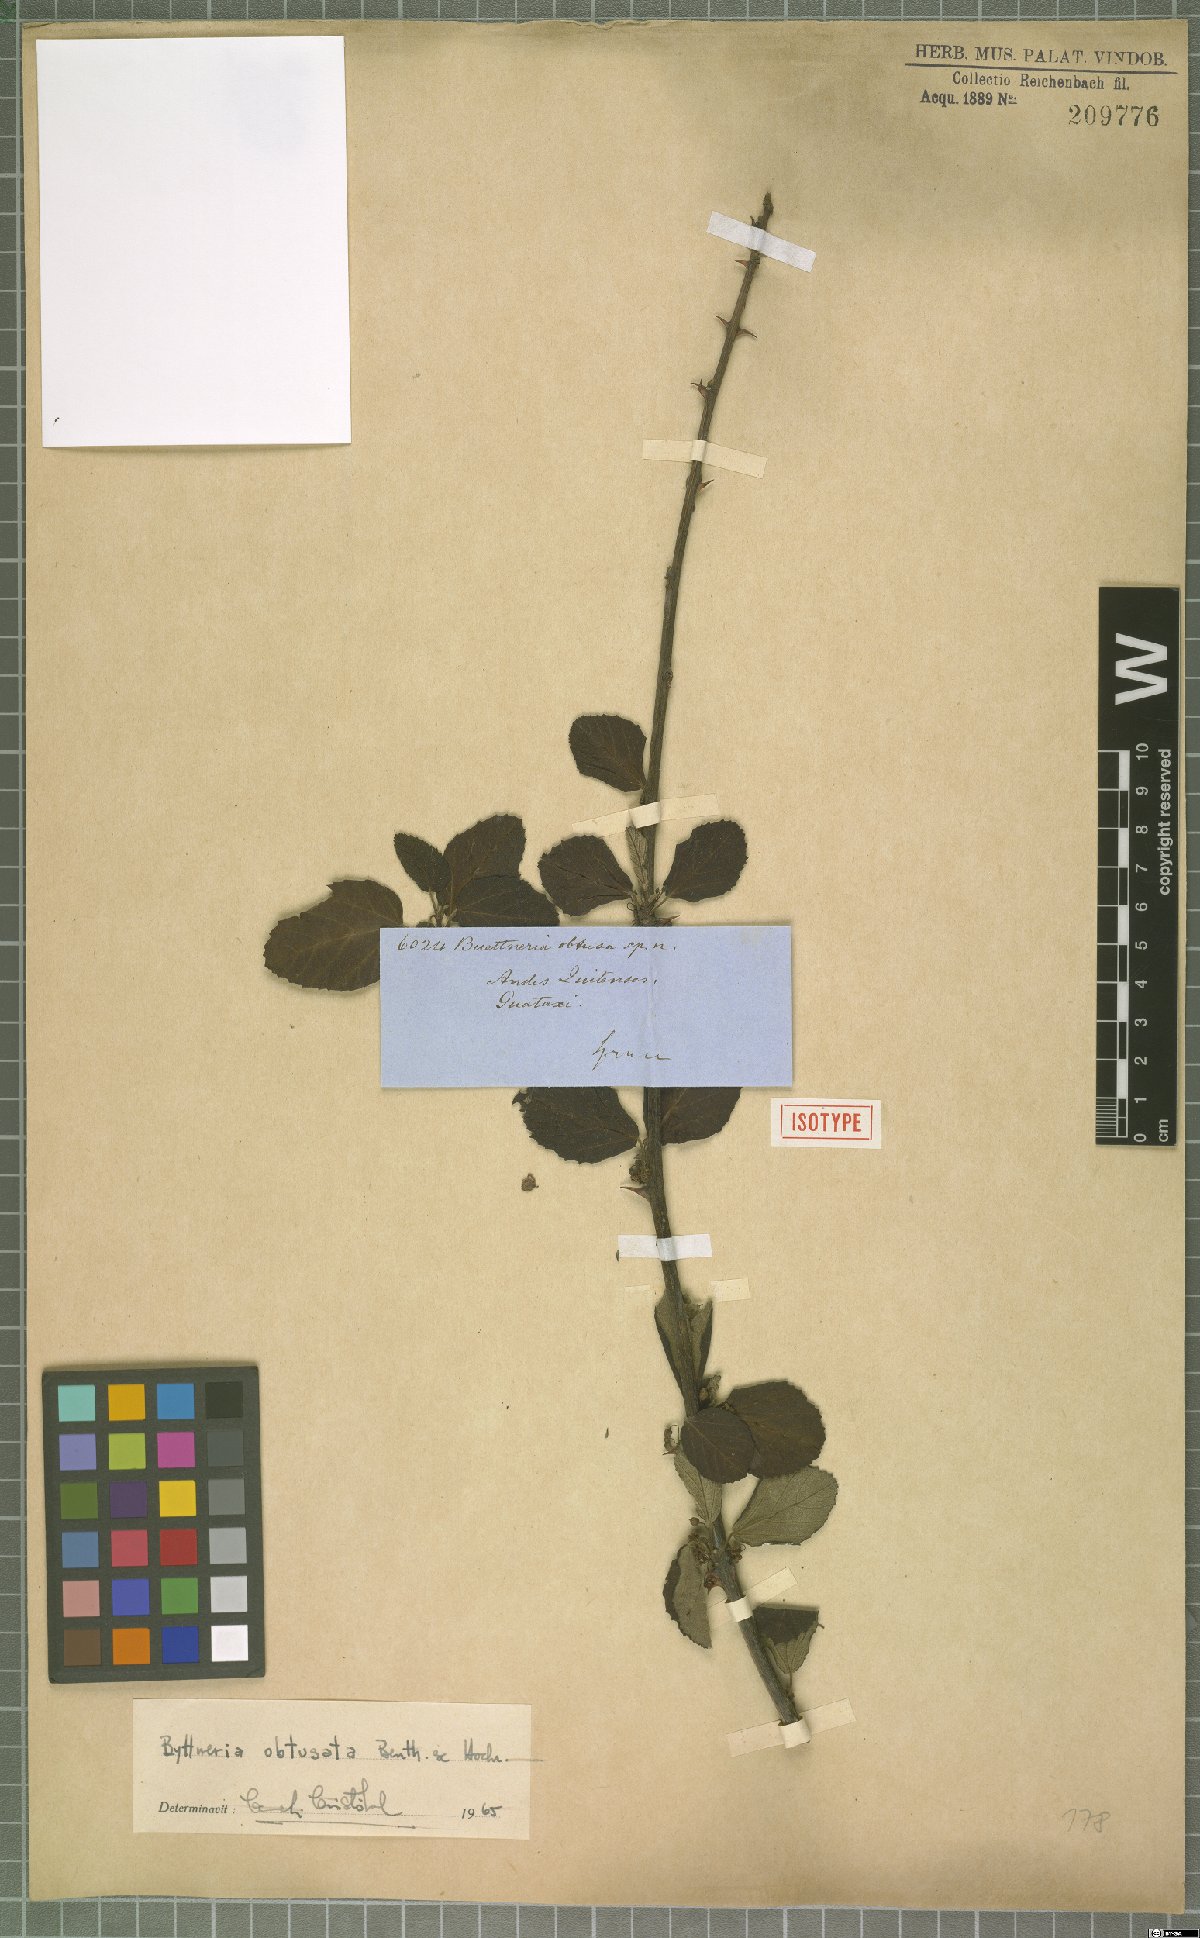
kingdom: Plantae
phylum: Tracheophyta
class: Magnoliopsida
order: Malvales
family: Malvaceae
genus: Byttneria
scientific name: Byttneria geminifolia
